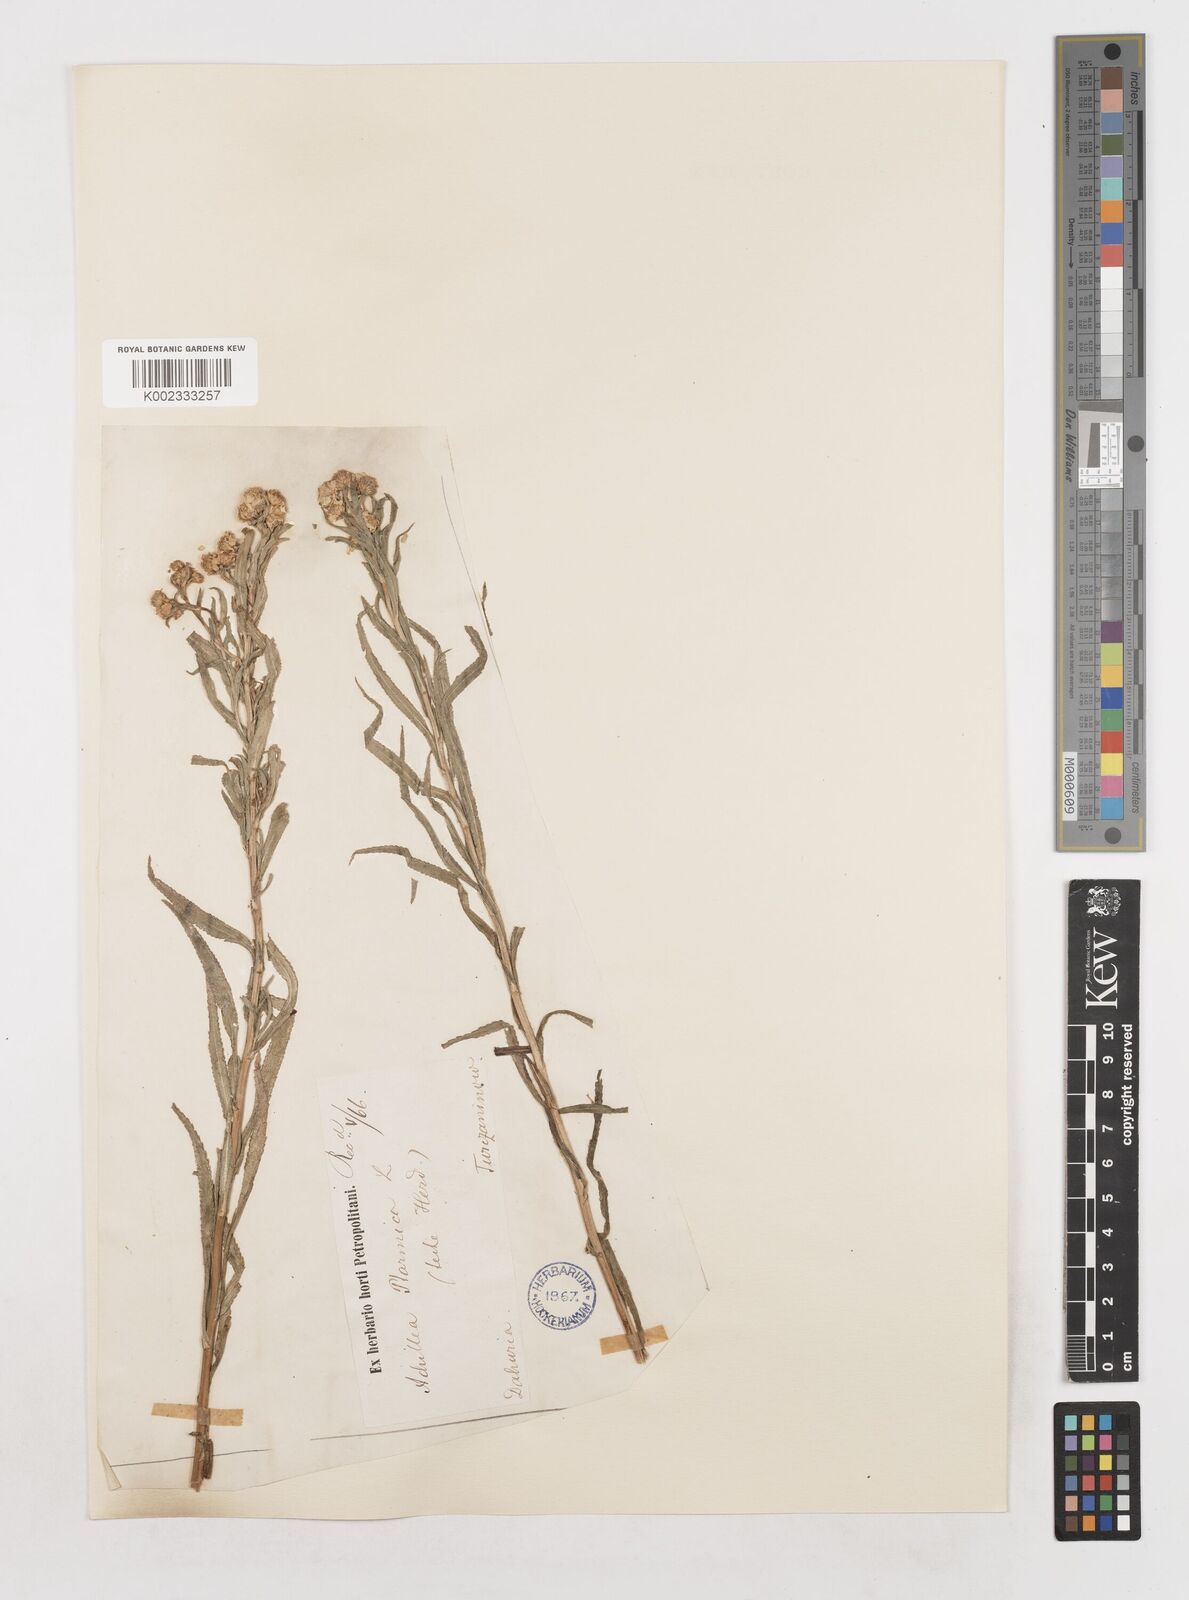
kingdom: Plantae
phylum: Tracheophyta
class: Magnoliopsida
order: Asterales
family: Asteraceae
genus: Achillea
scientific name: Achillea
